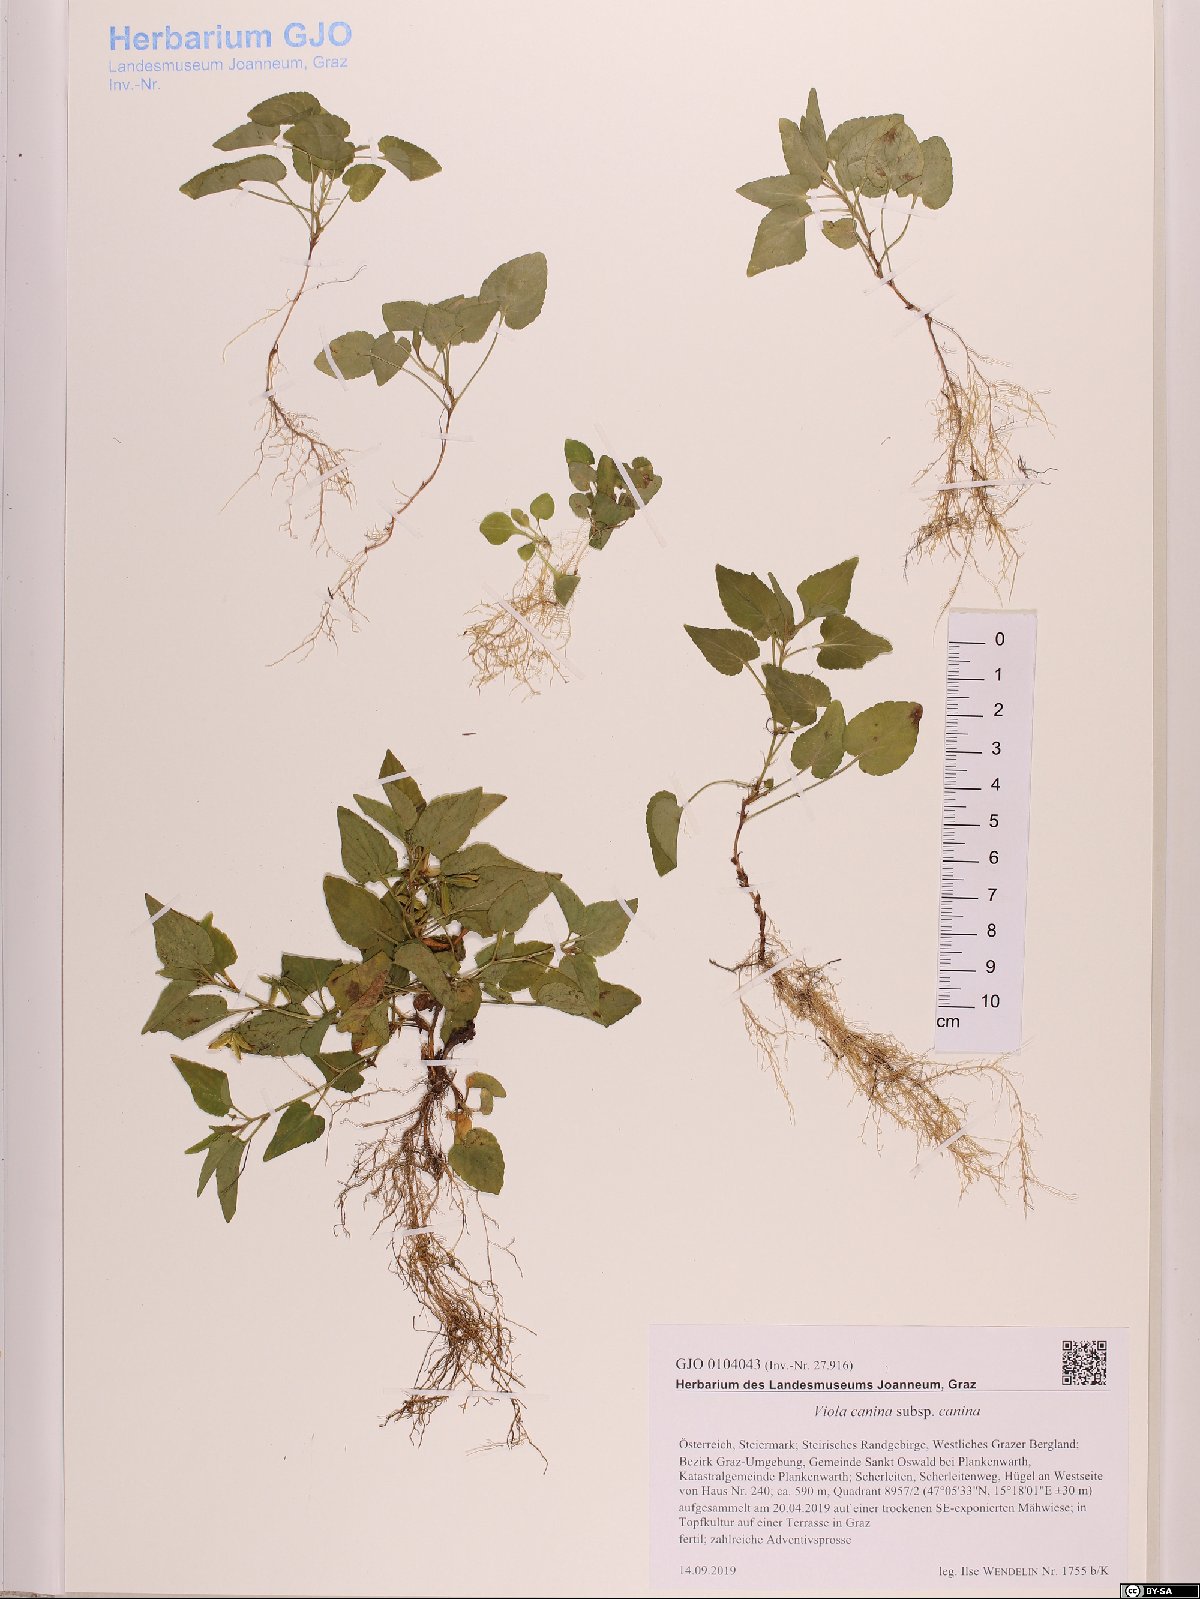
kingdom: Plantae
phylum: Tracheophyta
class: Magnoliopsida
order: Malpighiales
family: Violaceae
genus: Viola
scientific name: Viola canina
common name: Heath dog-violet
